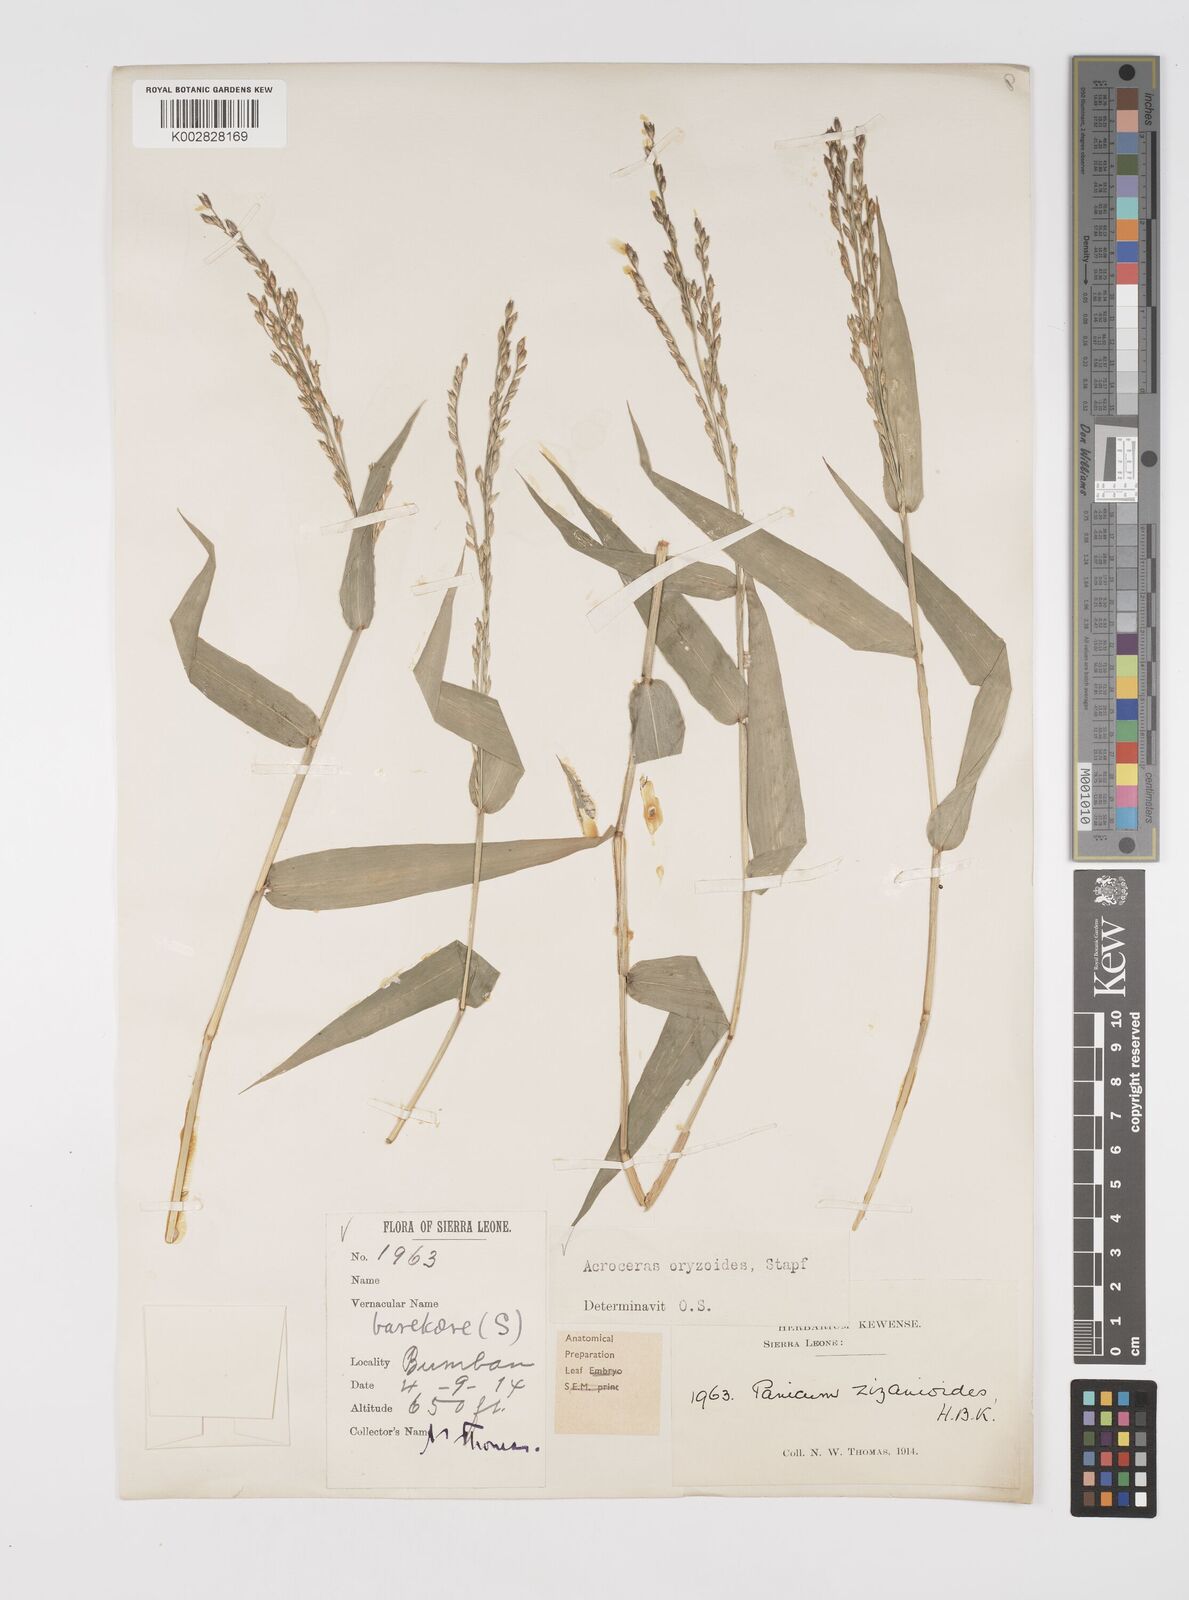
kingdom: Plantae
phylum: Tracheophyta
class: Liliopsida
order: Poales
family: Poaceae
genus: Acroceras
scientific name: Acroceras zizanioides
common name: Oat grass
